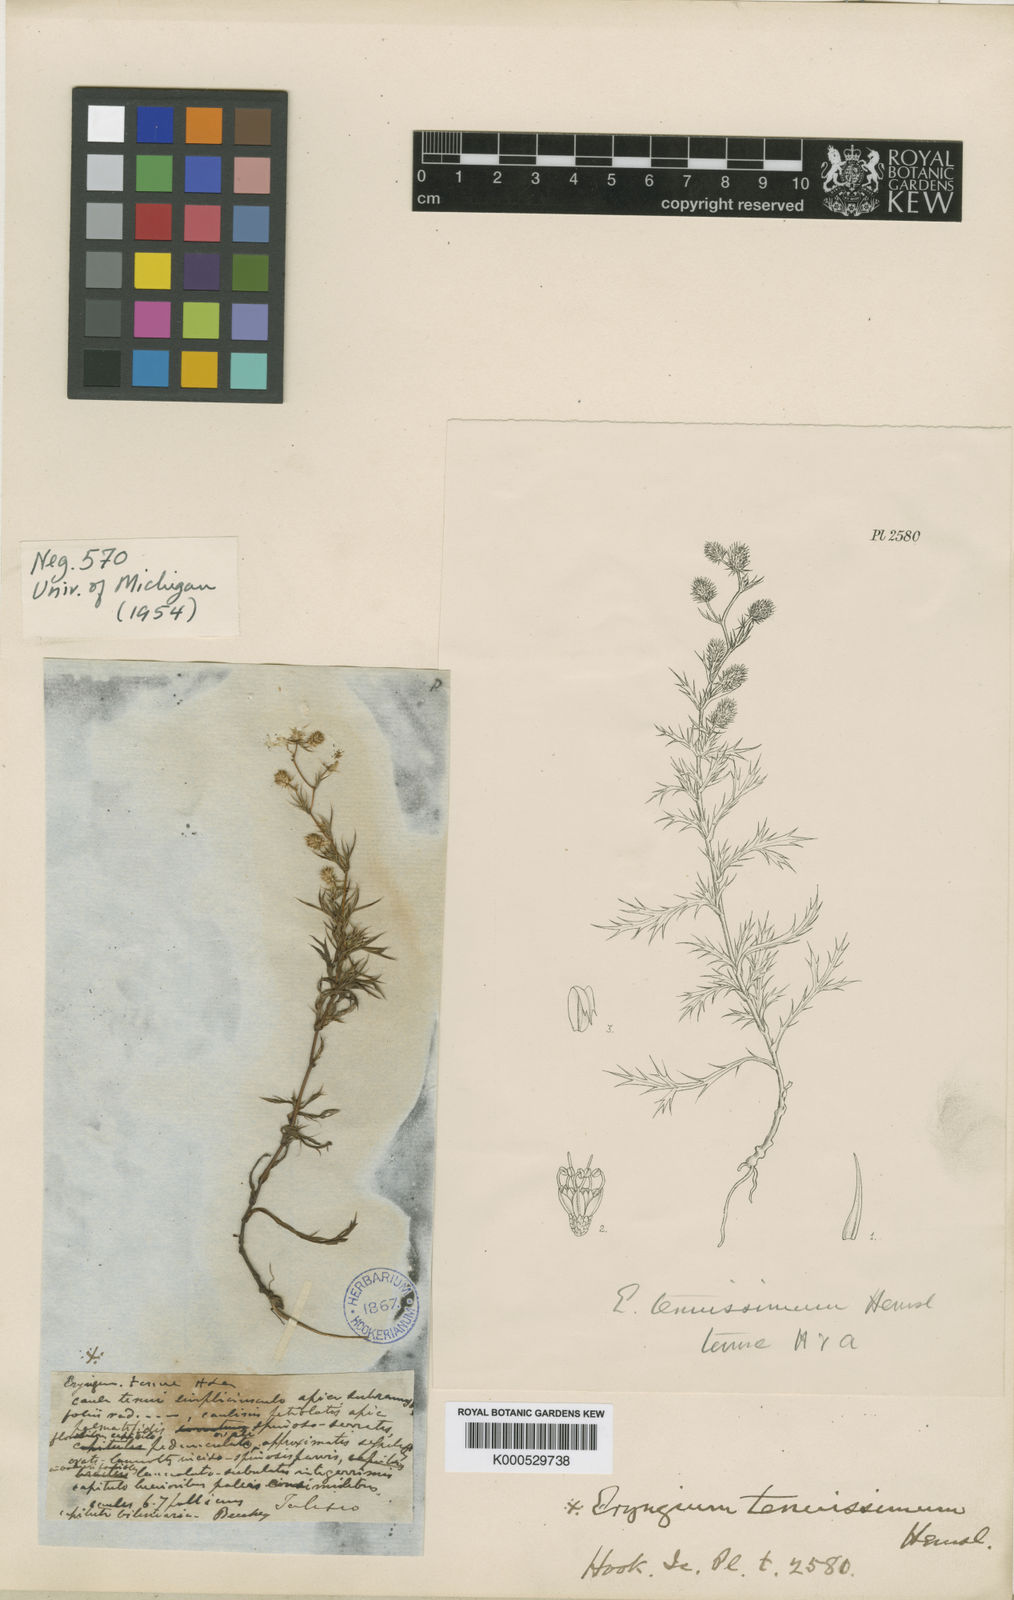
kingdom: Plantae
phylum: Tracheophyta
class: Magnoliopsida
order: Apiales
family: Apiaceae
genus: Eryngium
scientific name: Eryngium beecheyanum
